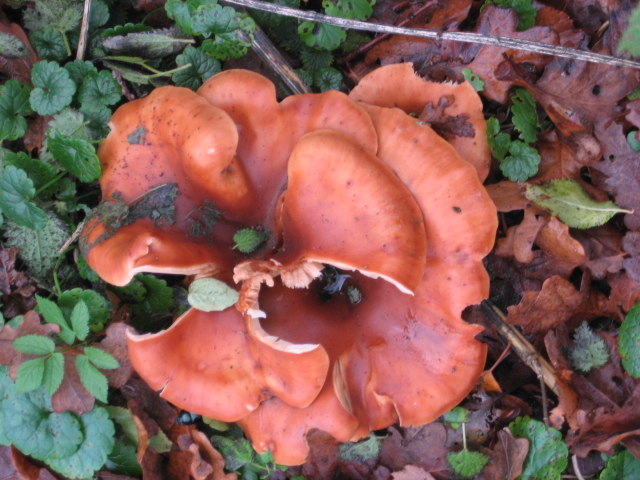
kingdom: Fungi
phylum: Basidiomycota
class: Agaricomycetes
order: Agaricales
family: Tricholomataceae
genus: Paralepista
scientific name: Paralepista flaccida
